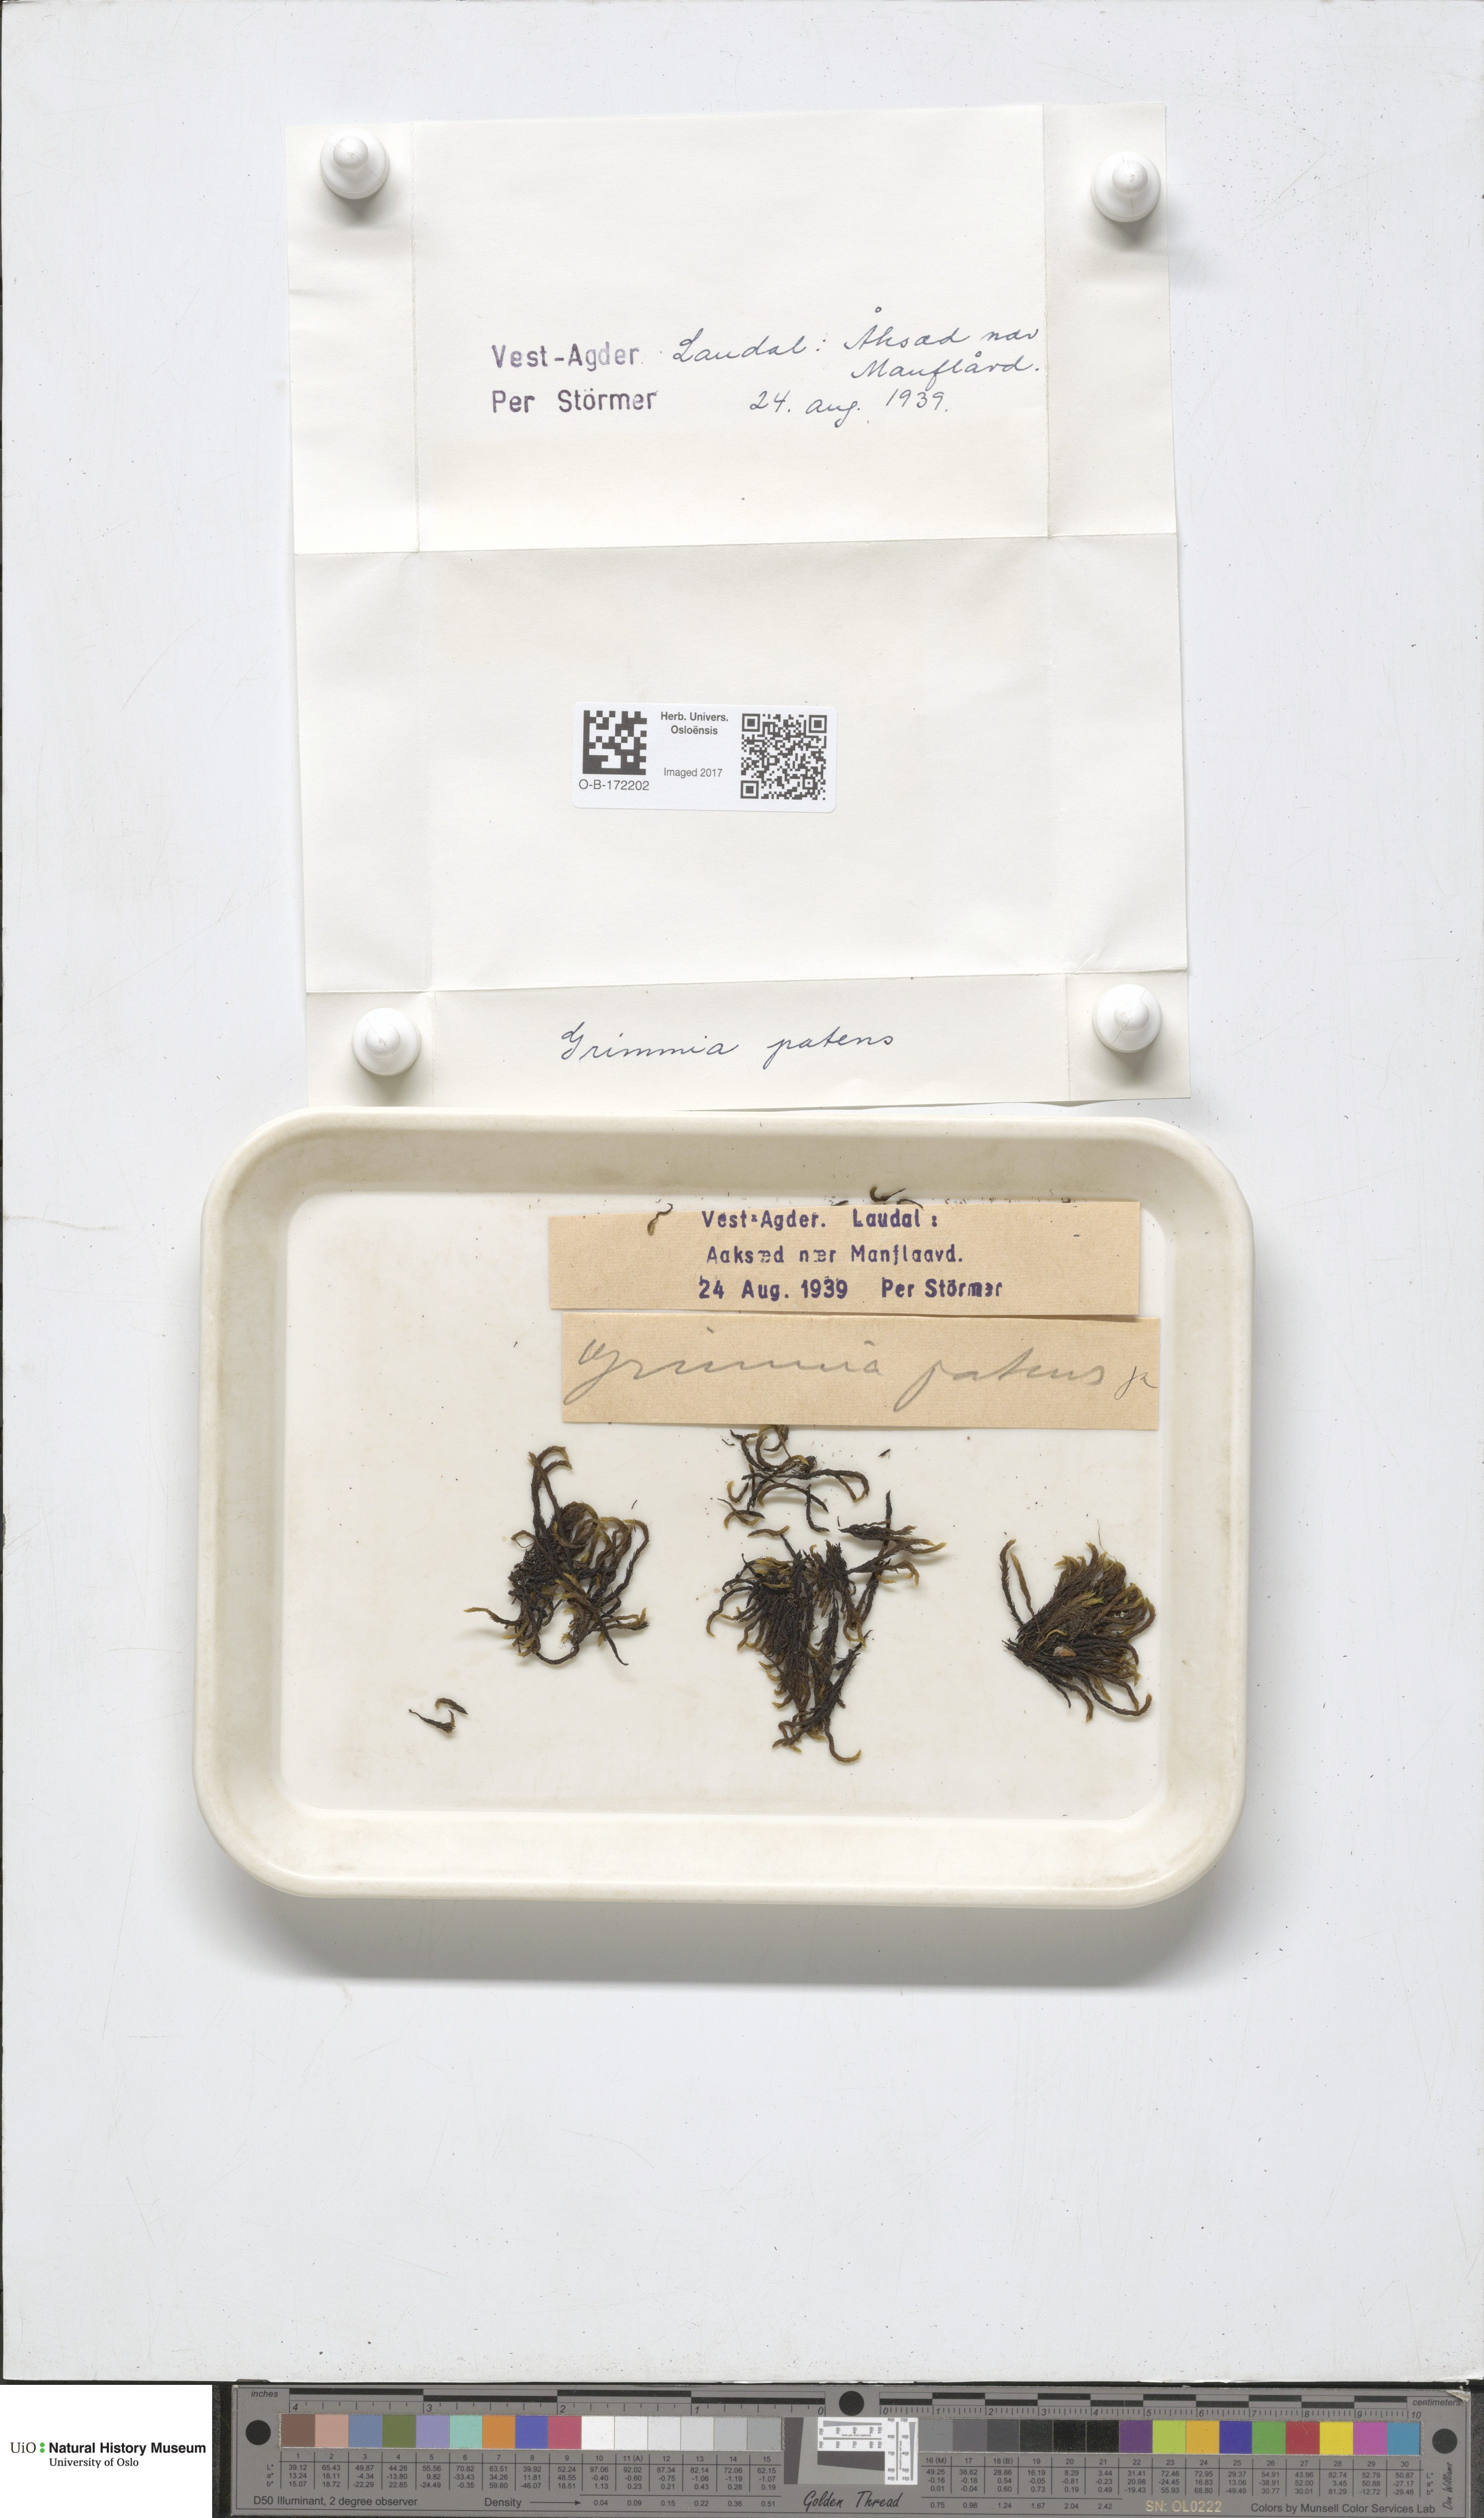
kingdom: Plantae
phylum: Bryophyta
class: Bryopsida
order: Grimmiales
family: Grimmiaceae
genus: Grimmia
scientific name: Grimmia ramondii
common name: Spreading-leaved grimmia
